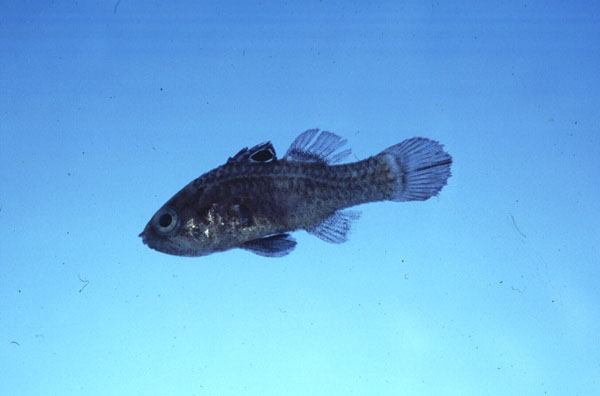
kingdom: Animalia
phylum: Chordata
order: Perciformes
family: Apogonidae
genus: Apogonichthys
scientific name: Apogonichthys ocellatus
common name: Ocellated cardinalfish
